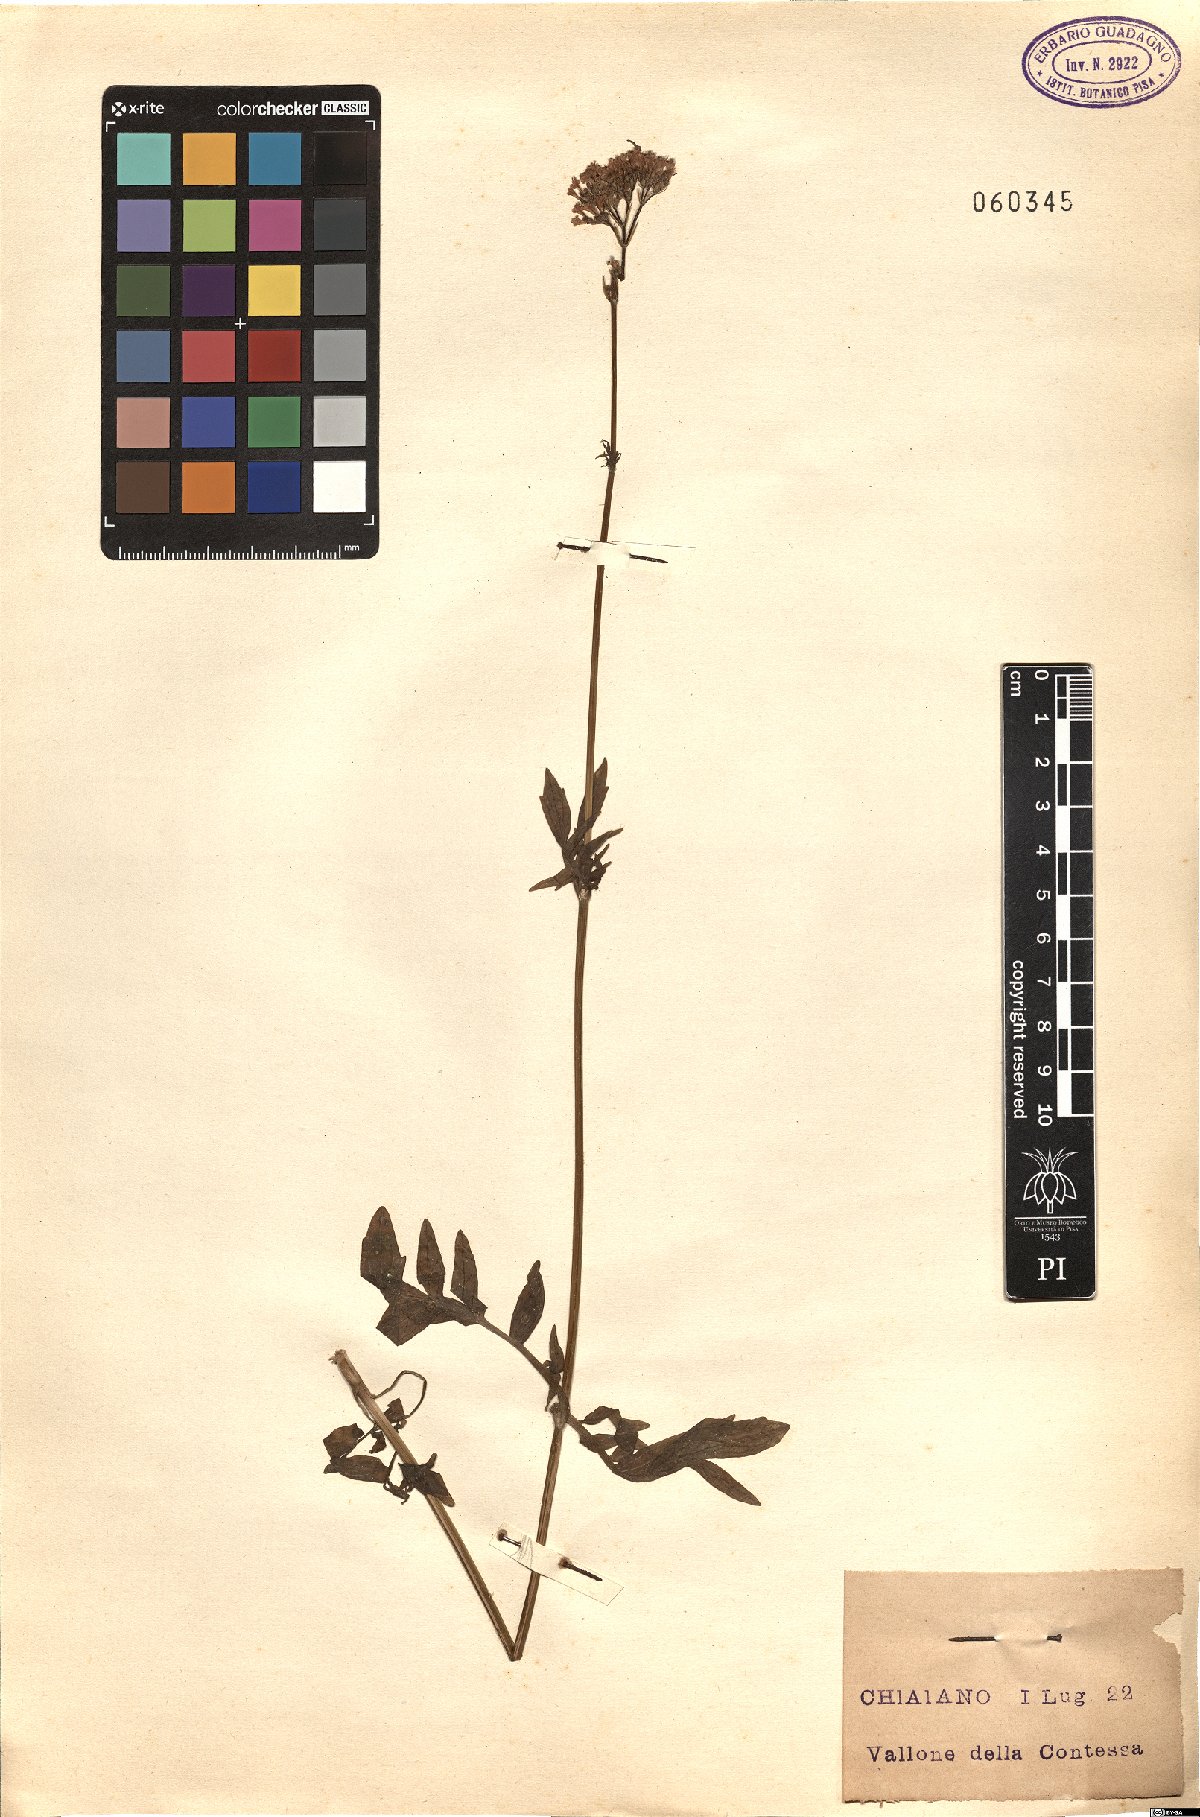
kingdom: Plantae
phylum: Tracheophyta
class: Magnoliopsida
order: Dipsacales
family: Caprifoliaceae
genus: Valeriana
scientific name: Valeriana officinalis
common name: Common valerian
